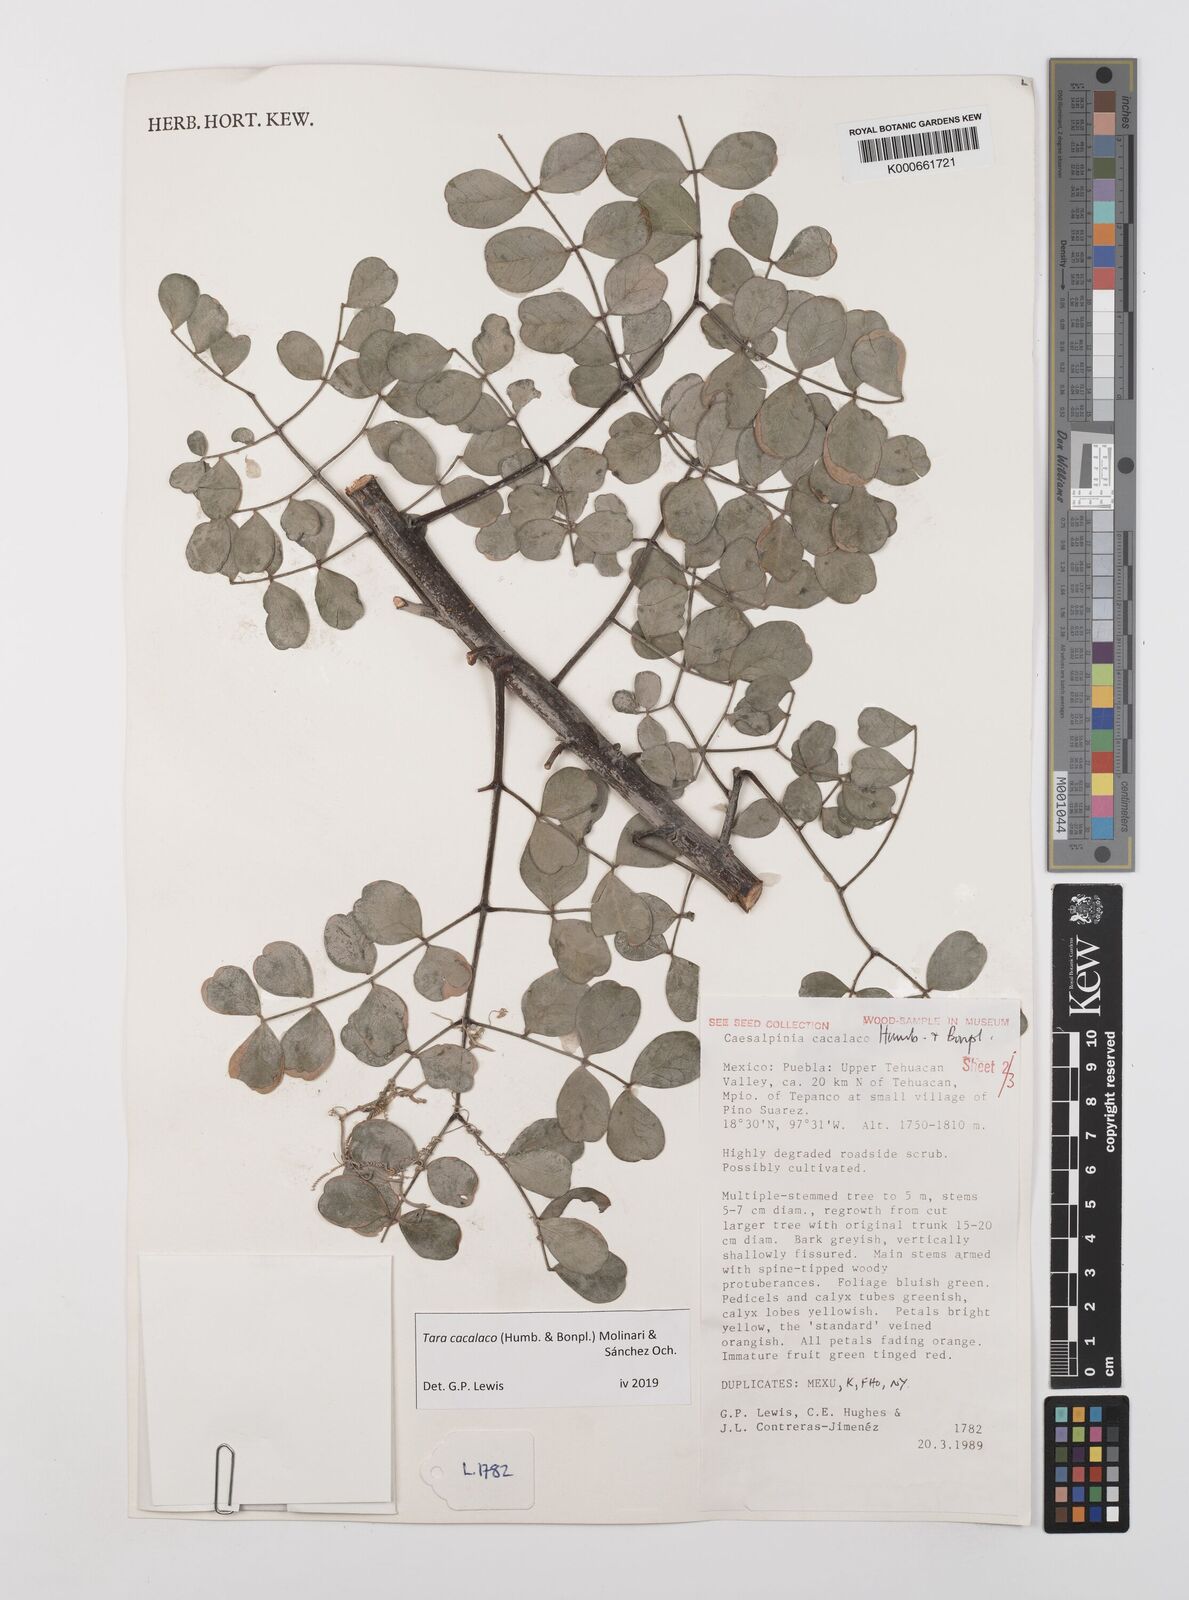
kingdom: Plantae
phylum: Tracheophyta
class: Magnoliopsida
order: Fabales
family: Fabaceae
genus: Tara
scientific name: Tara cacalaco
